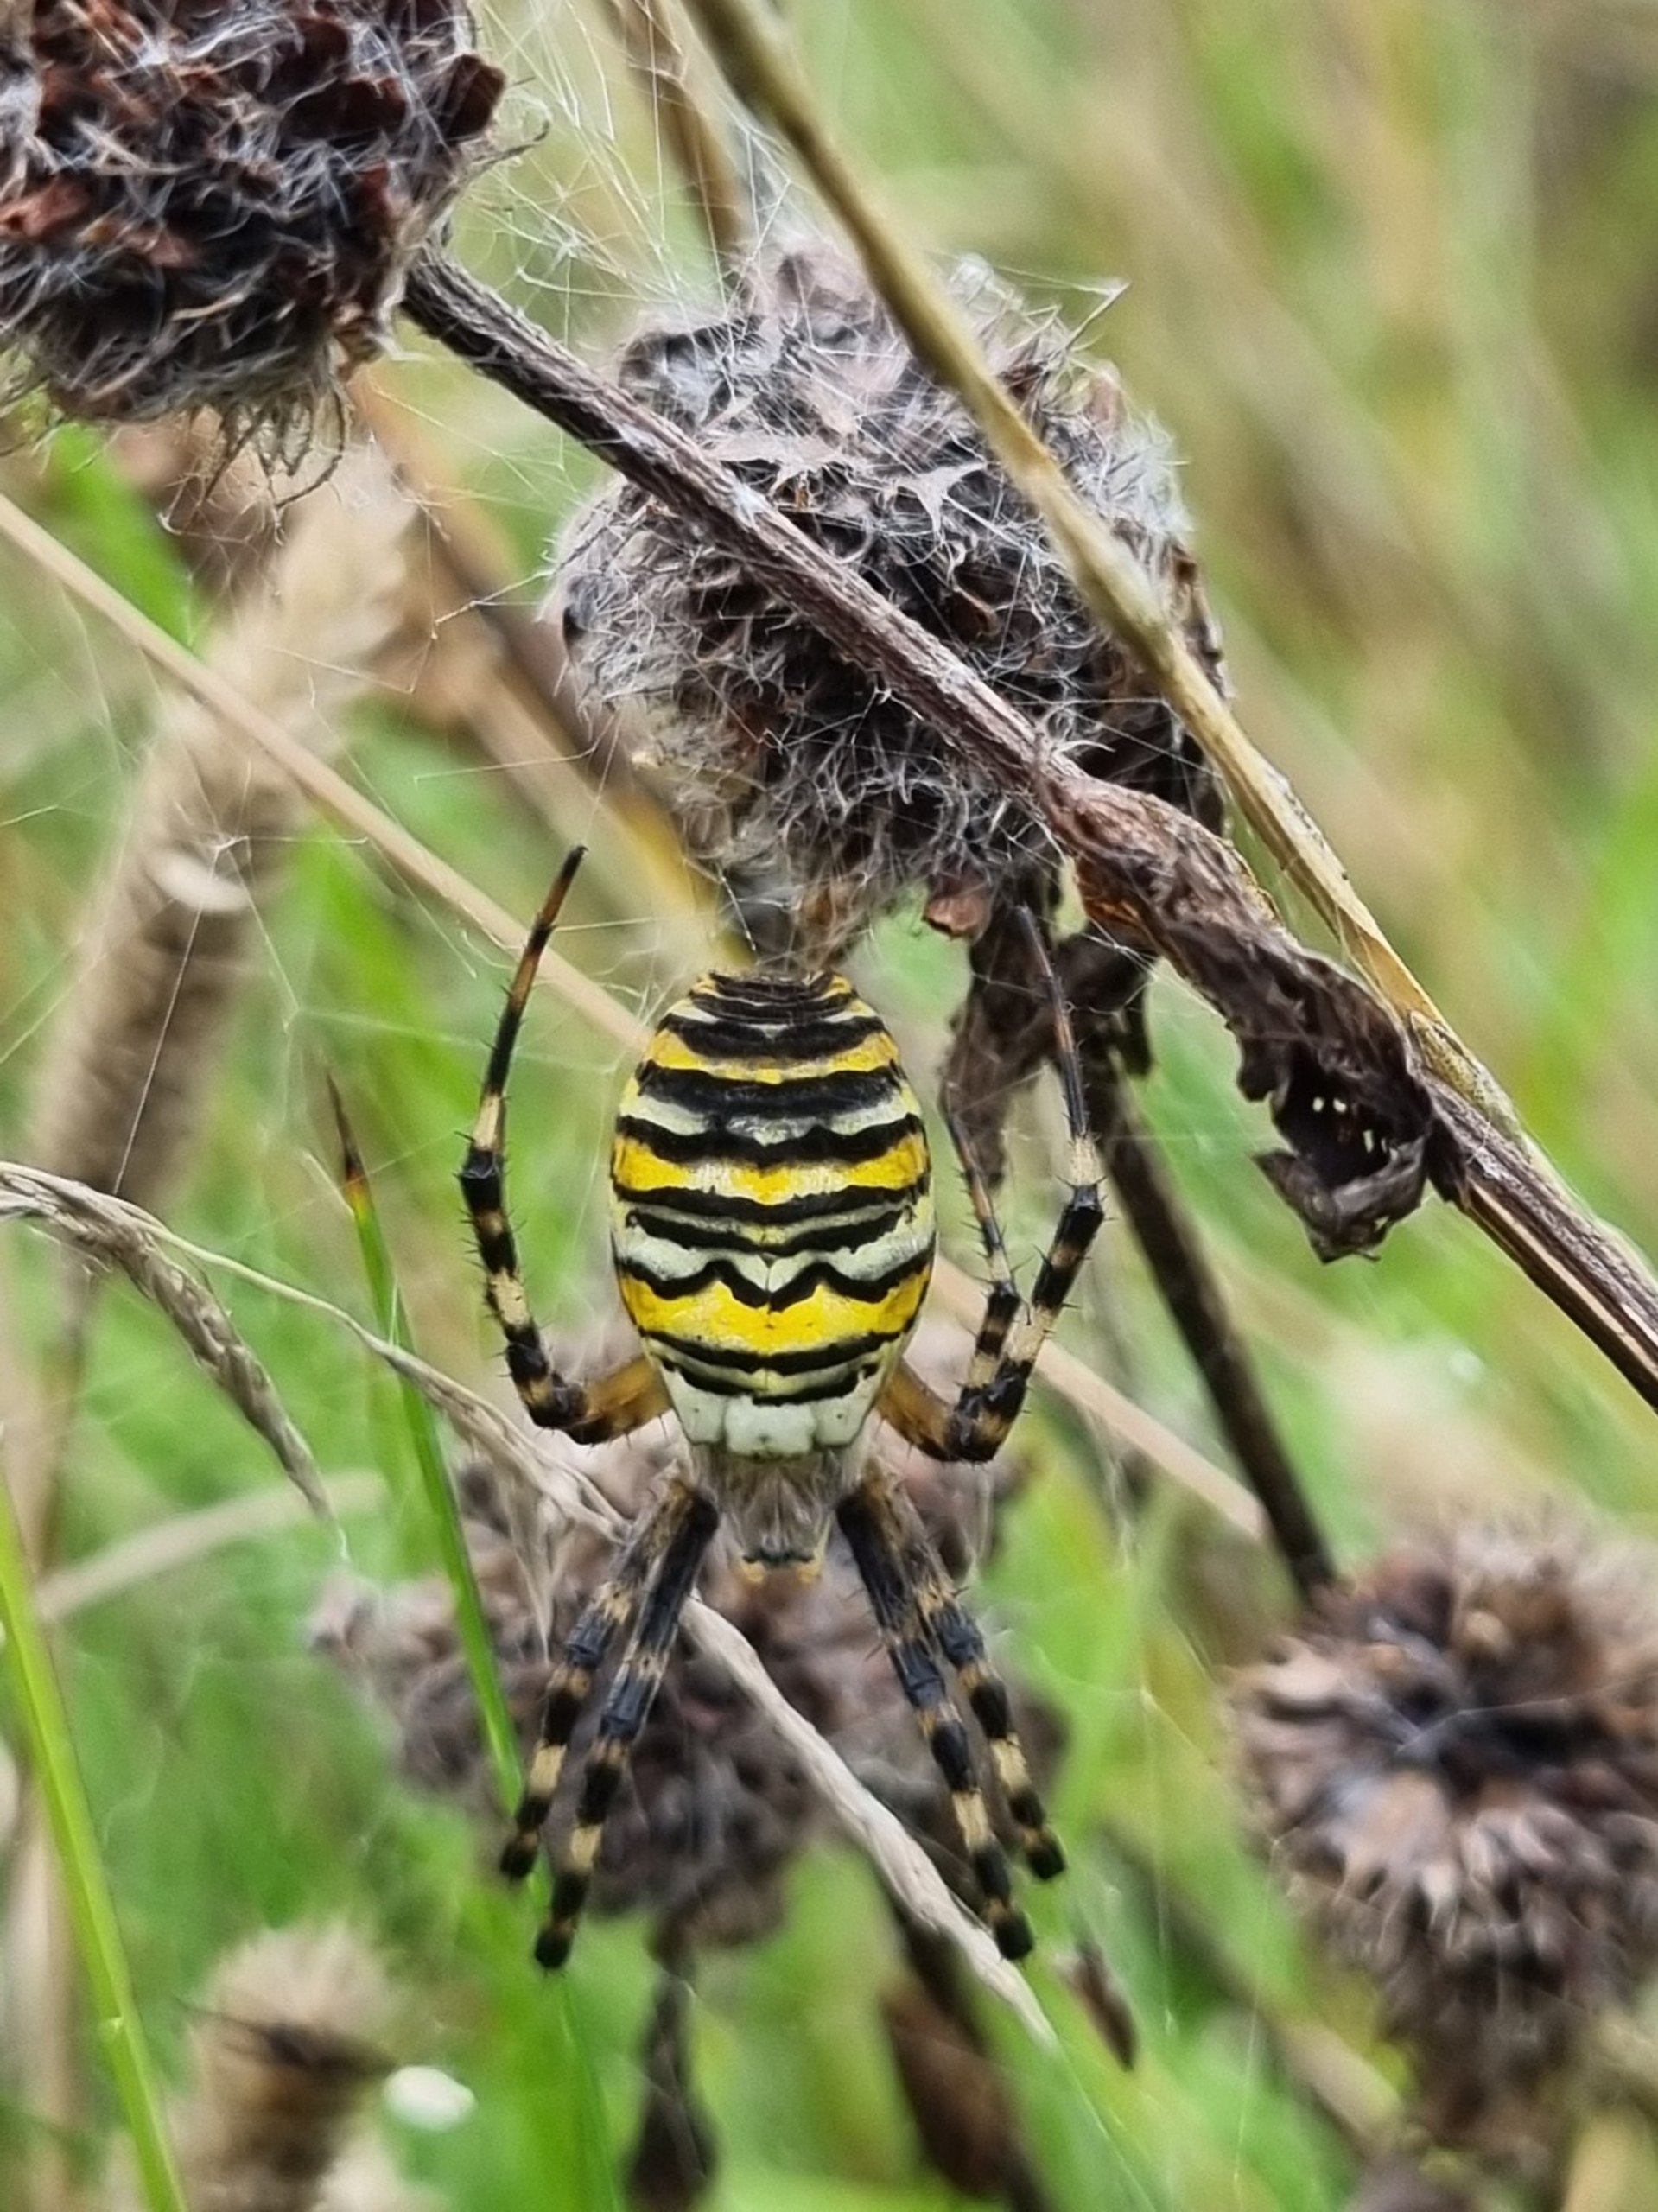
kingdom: Animalia
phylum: Arthropoda
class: Arachnida
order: Araneae
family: Araneidae
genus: Argiope
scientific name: Argiope bruennichi
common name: Hvepseedderkop
